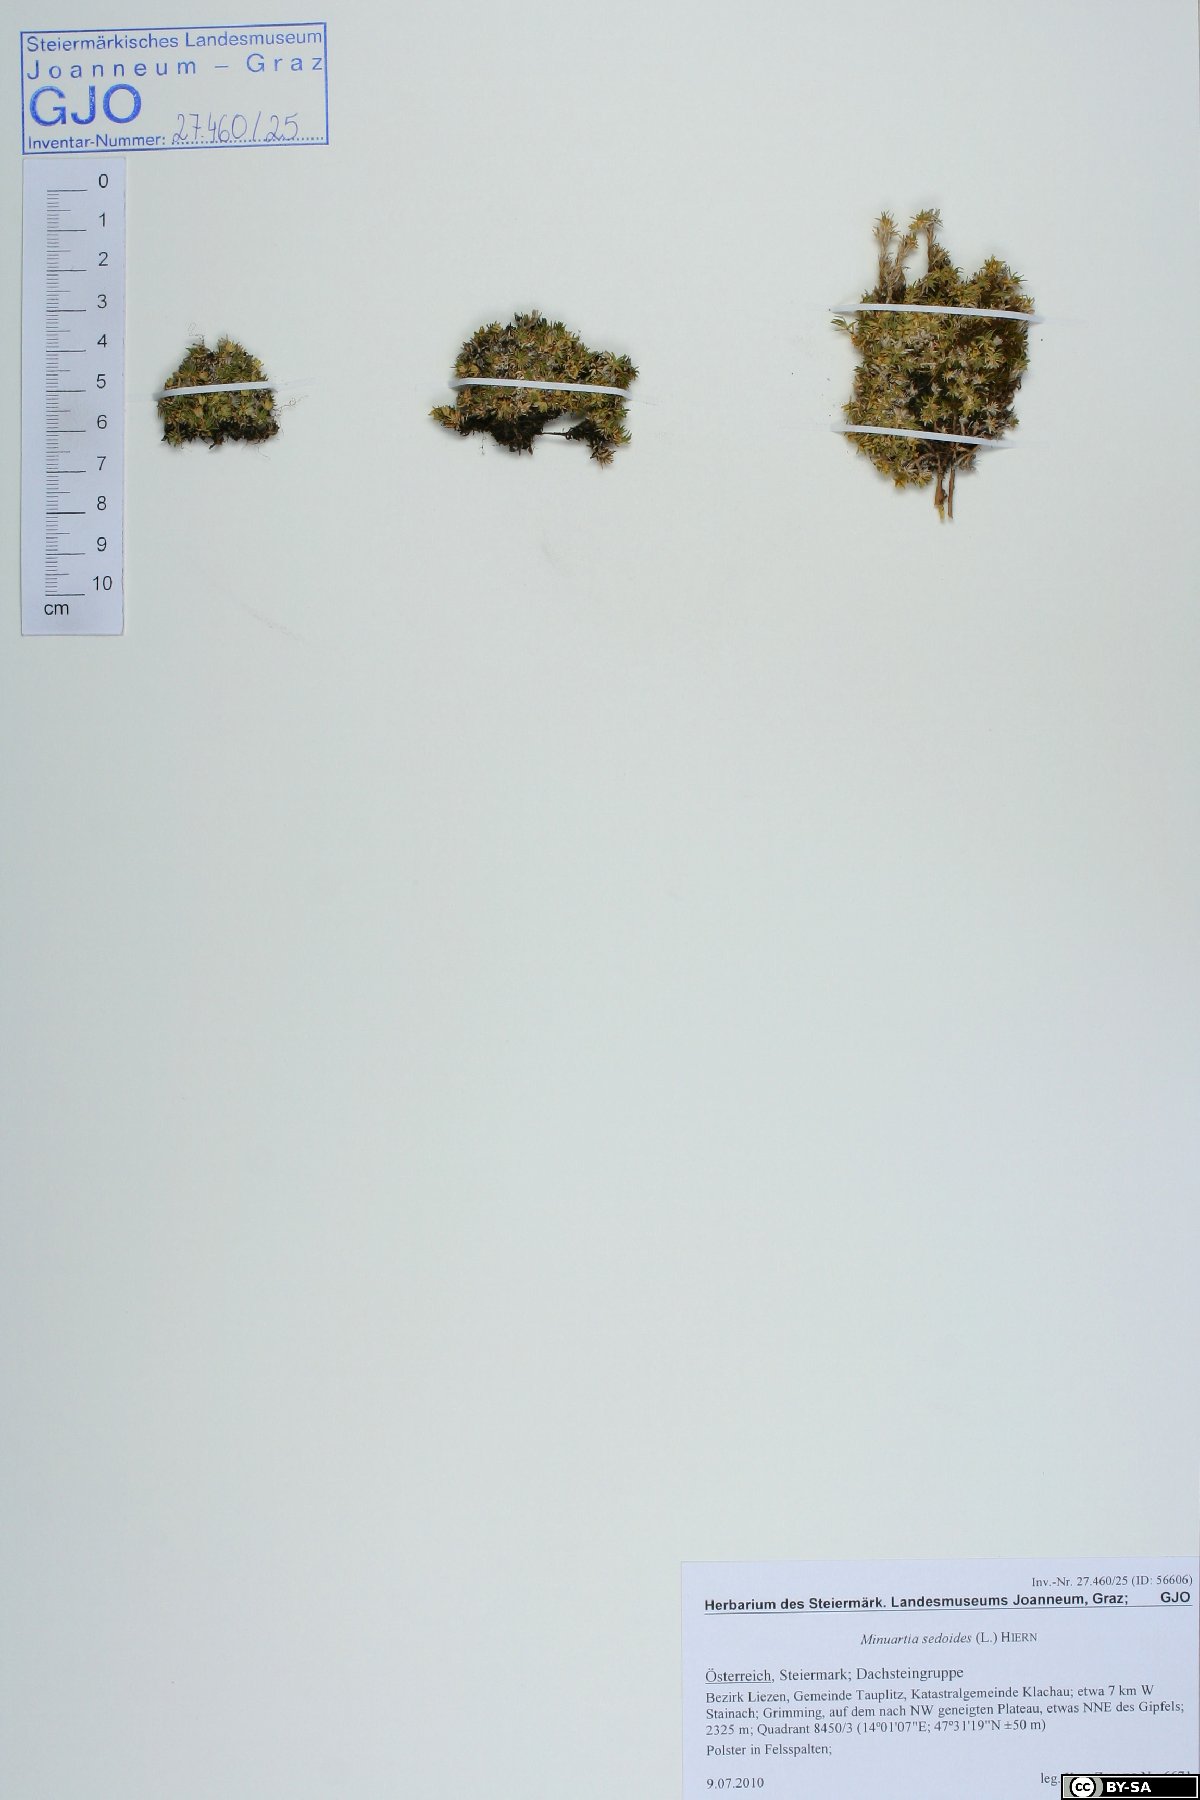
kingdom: Plantae
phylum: Tracheophyta
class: Magnoliopsida
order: Caryophyllales
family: Caryophyllaceae
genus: Cherleria
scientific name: Cherleria sedoides
